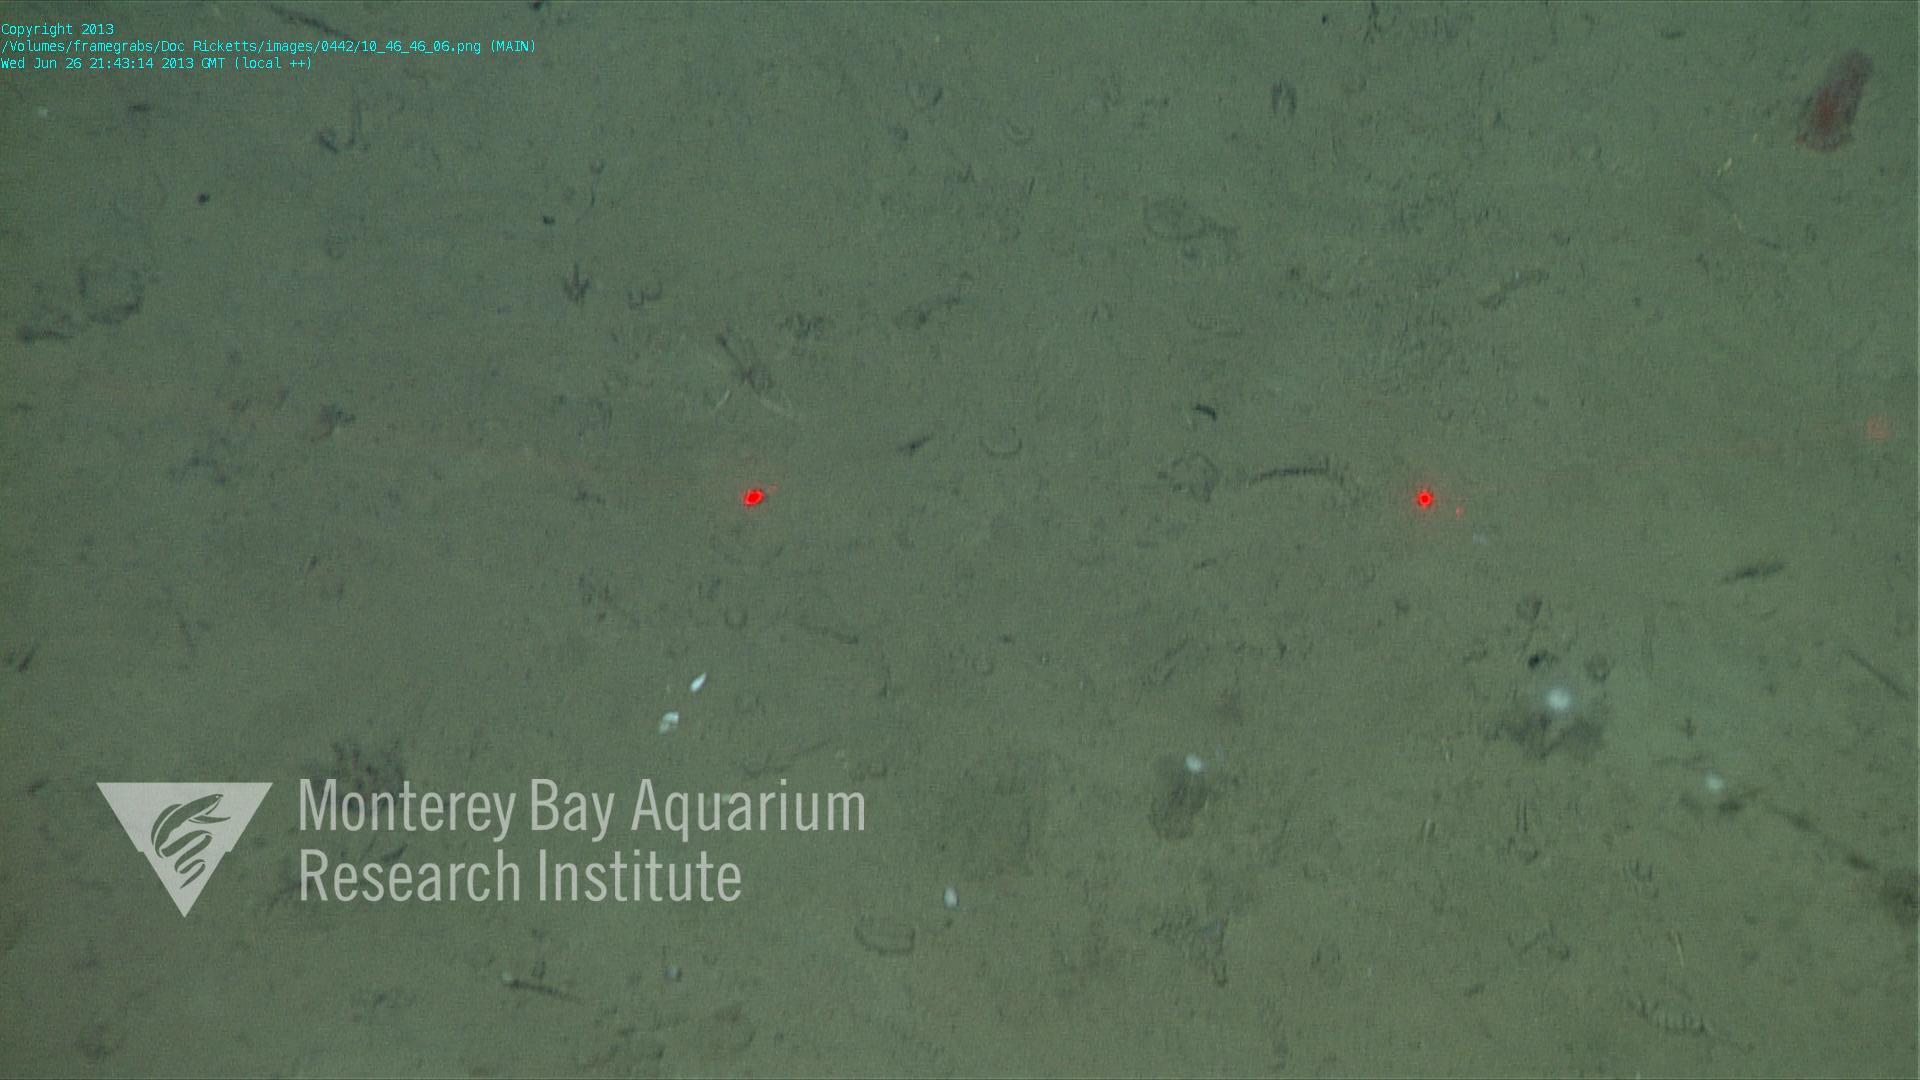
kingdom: Animalia
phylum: Porifera
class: Demospongiae
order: Poecilosclerida
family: Cladorhizidae
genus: Cladorhiza
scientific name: Cladorhiza
